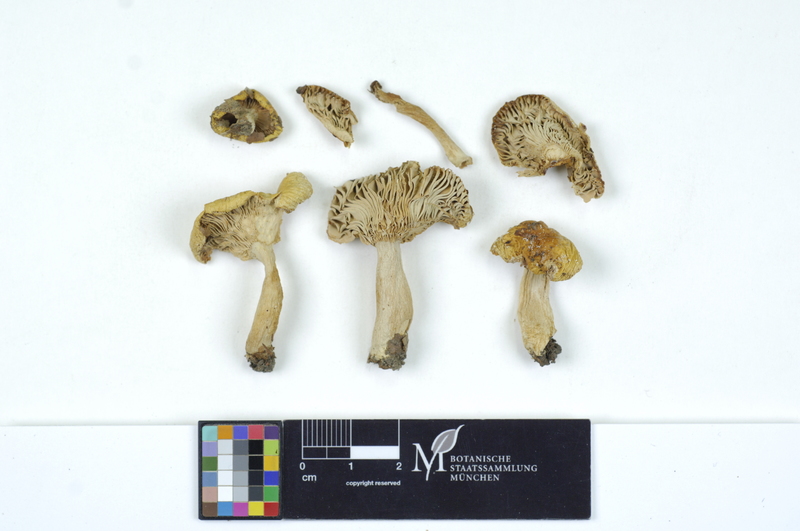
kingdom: Fungi
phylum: Basidiomycota
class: Agaricomycetes
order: Russulales
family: Russulaceae
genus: Russula
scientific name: Russula solaris
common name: Sunny brittlegill
